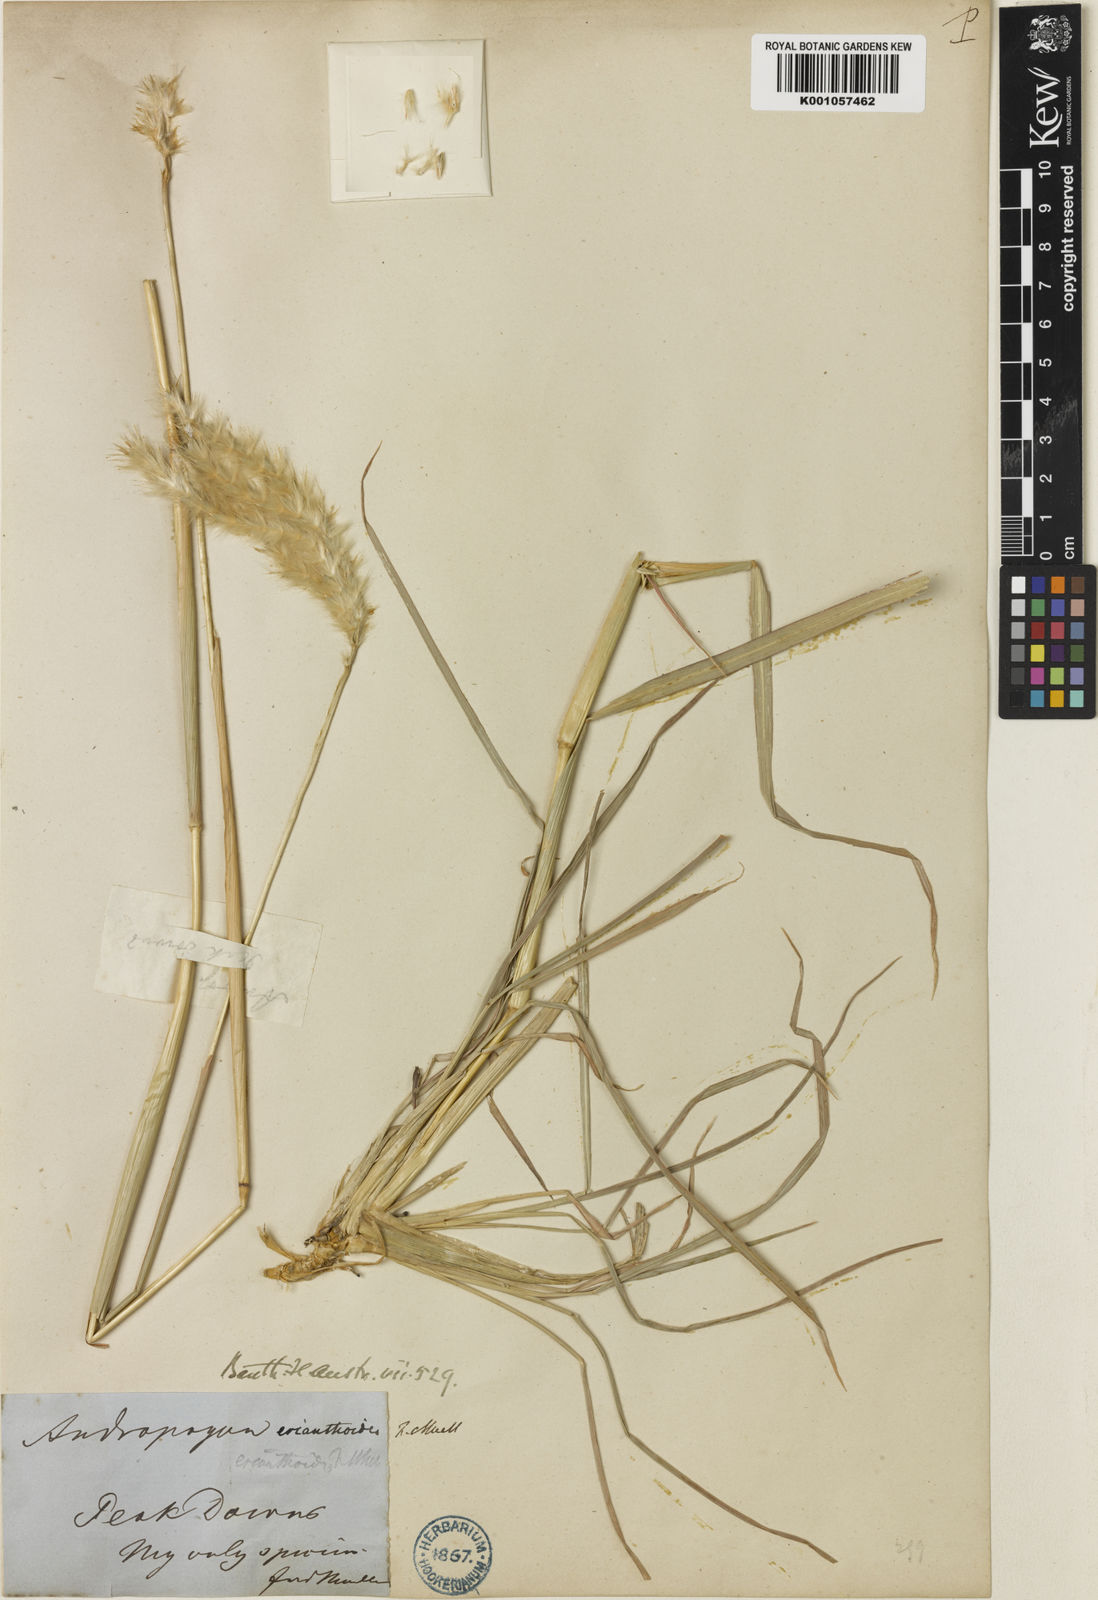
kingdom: Plantae
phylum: Tracheophyta
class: Liliopsida
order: Poales
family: Poaceae
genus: Bothriochloa
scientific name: Bothriochloa erianthoides
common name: Satin-top grass
